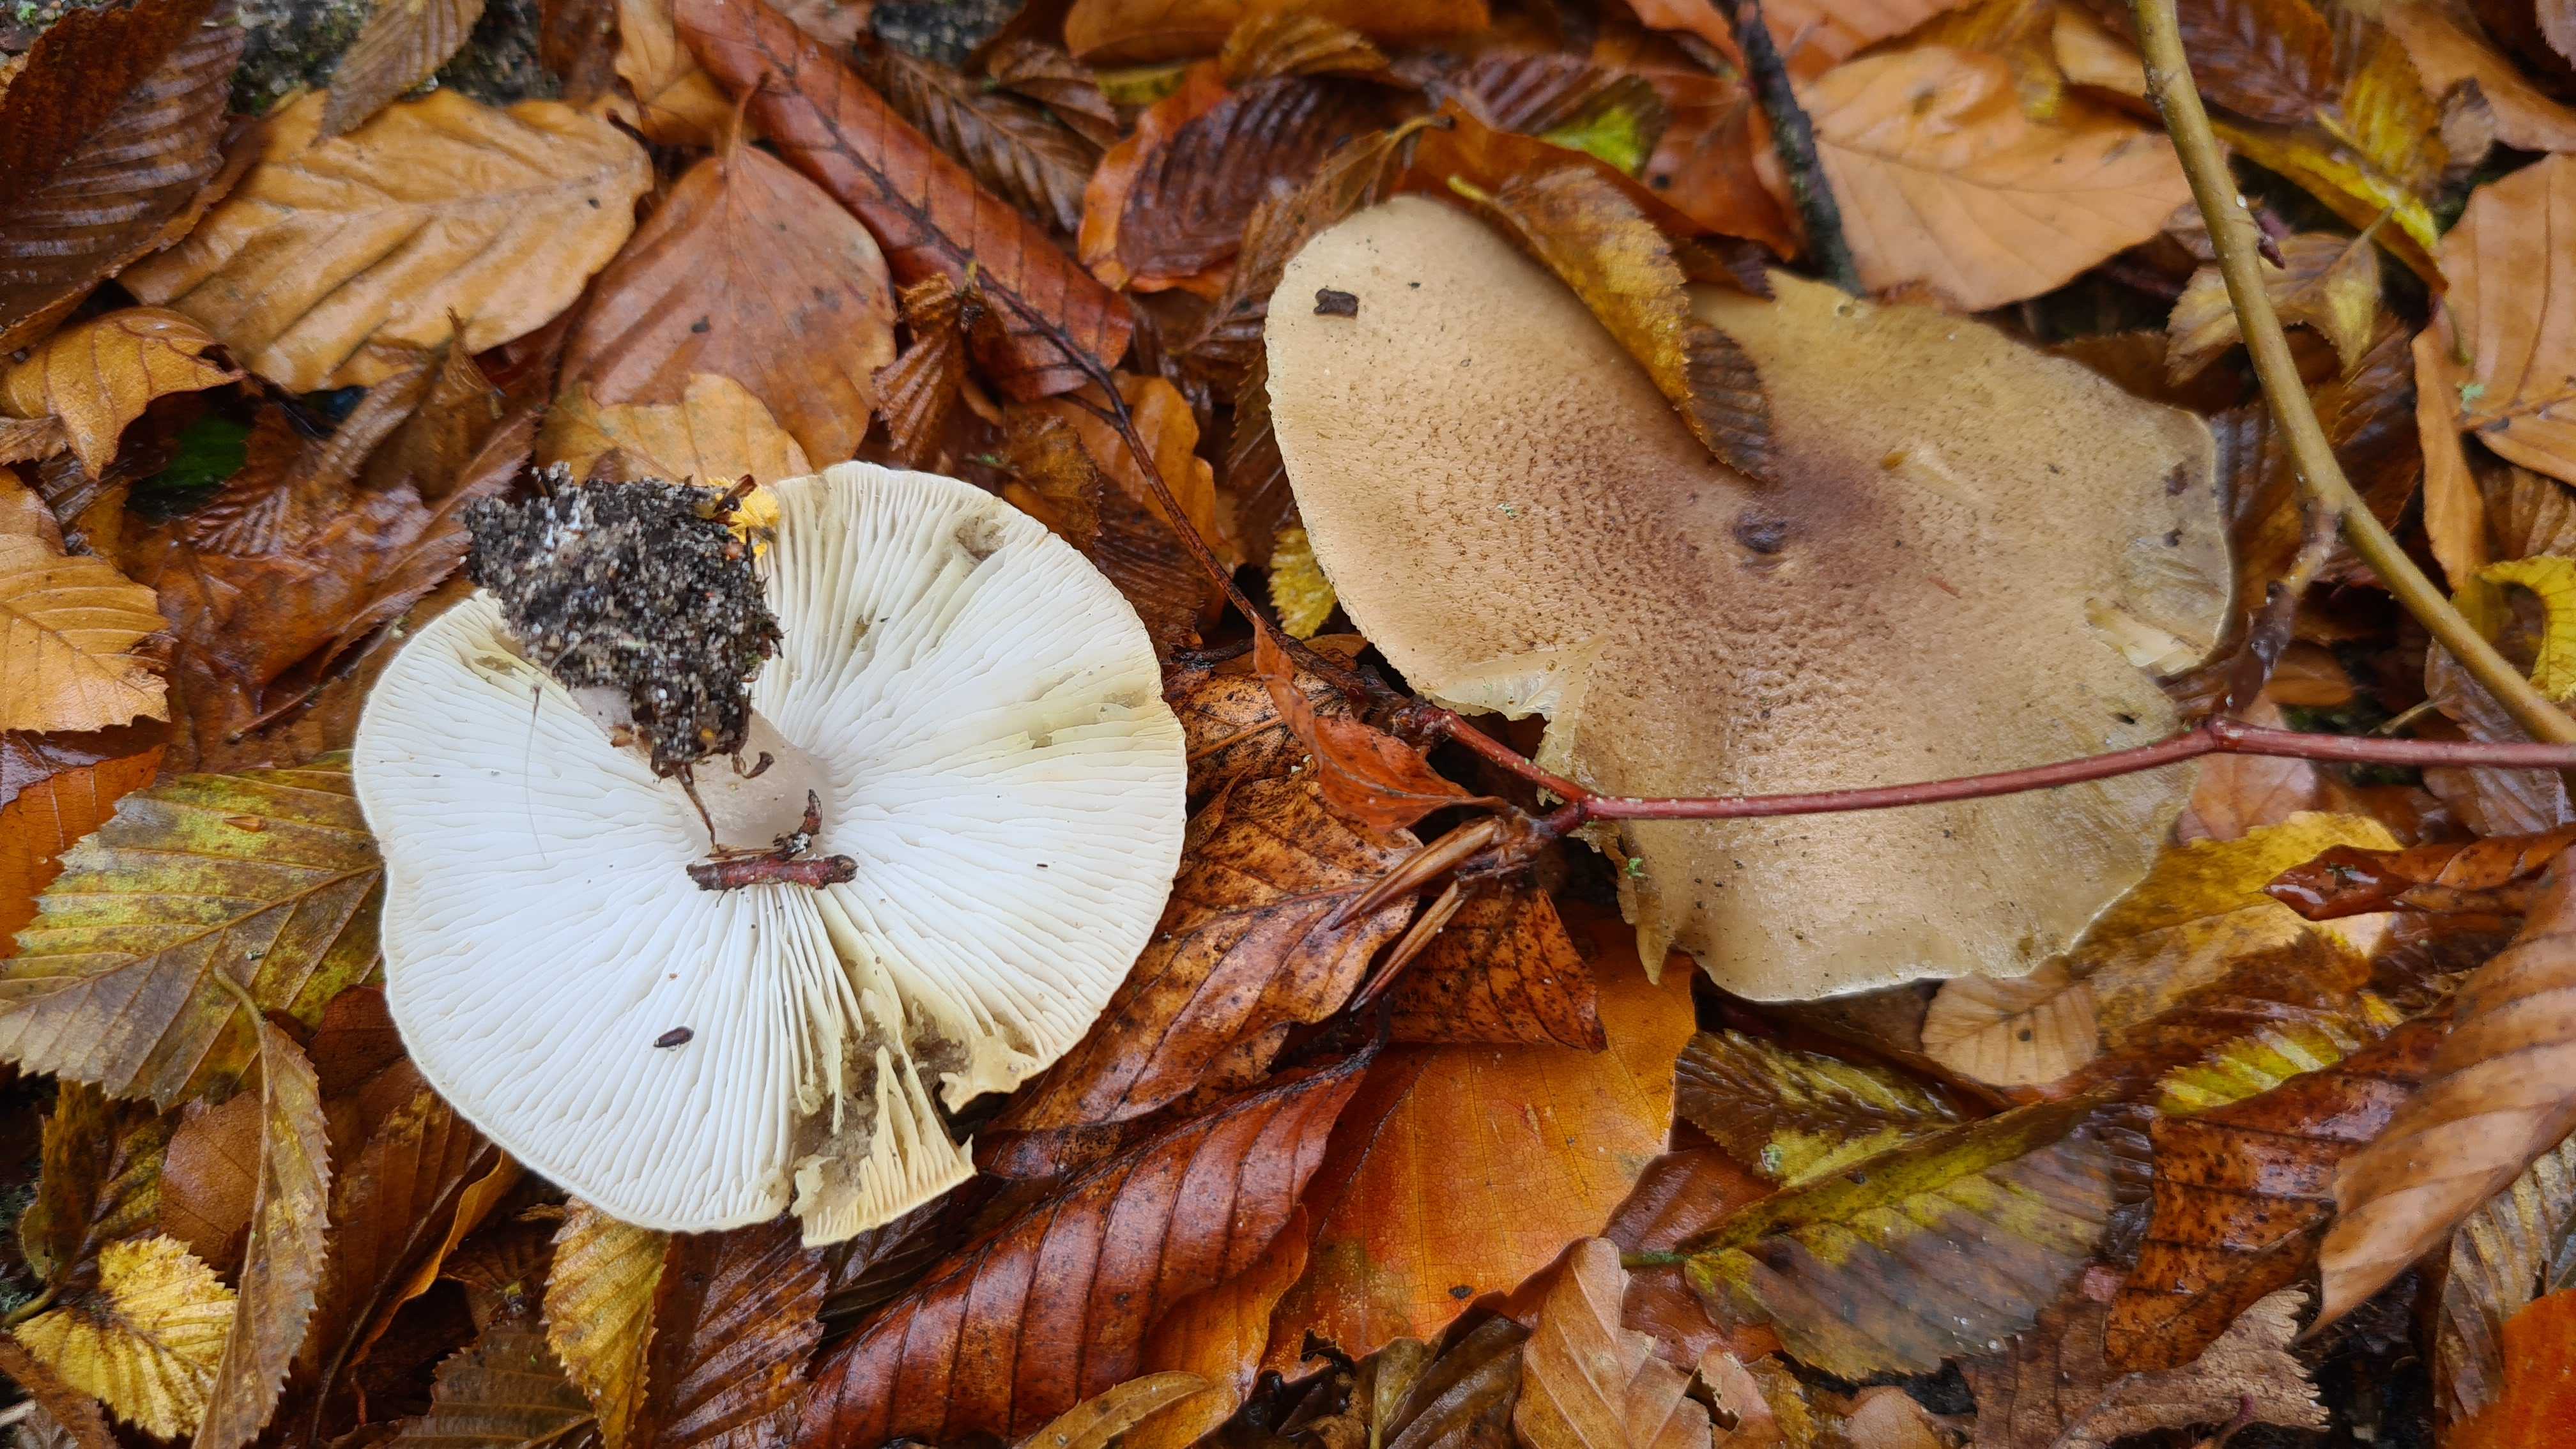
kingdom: Fungi
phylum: Basidiomycota
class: Agaricomycetes
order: Agaricales
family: Tricholomataceae
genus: Tricholoma
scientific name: Tricholoma scalpturatum
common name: gulplettet ridderhat
